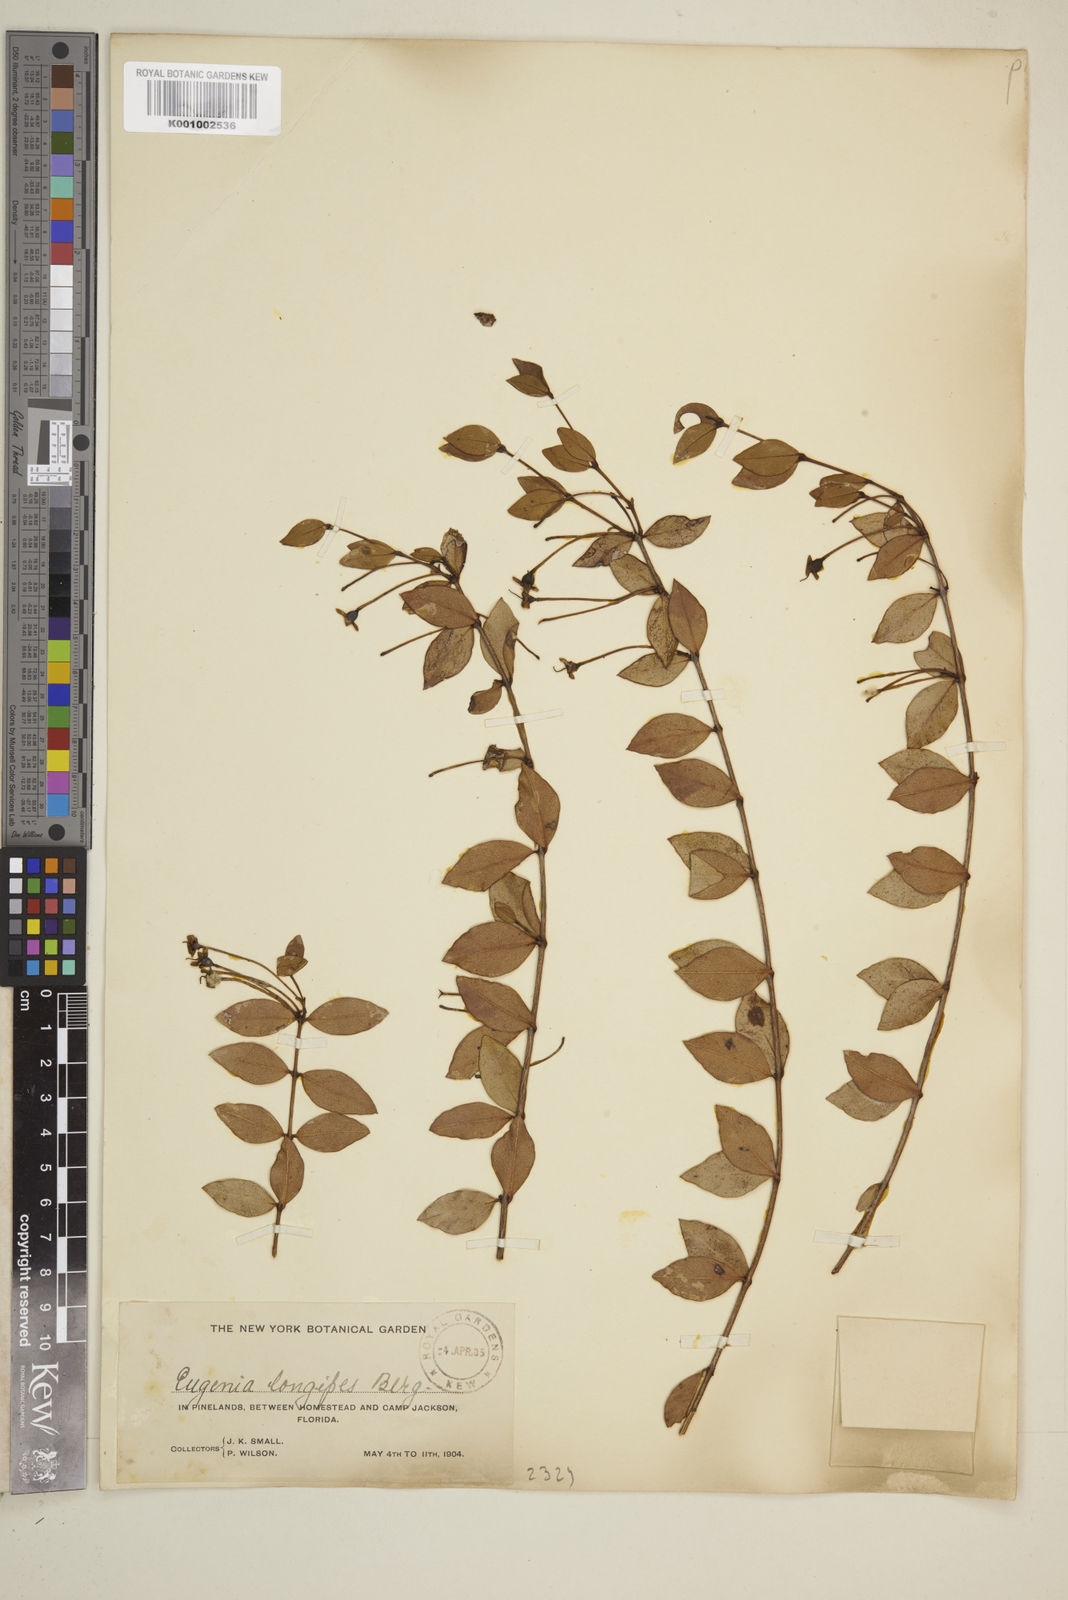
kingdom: Plantae
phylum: Tracheophyta
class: Magnoliopsida
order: Myrtales
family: Myrtaceae
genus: Mosiera
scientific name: Mosiera longipes
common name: Bahama stopper
